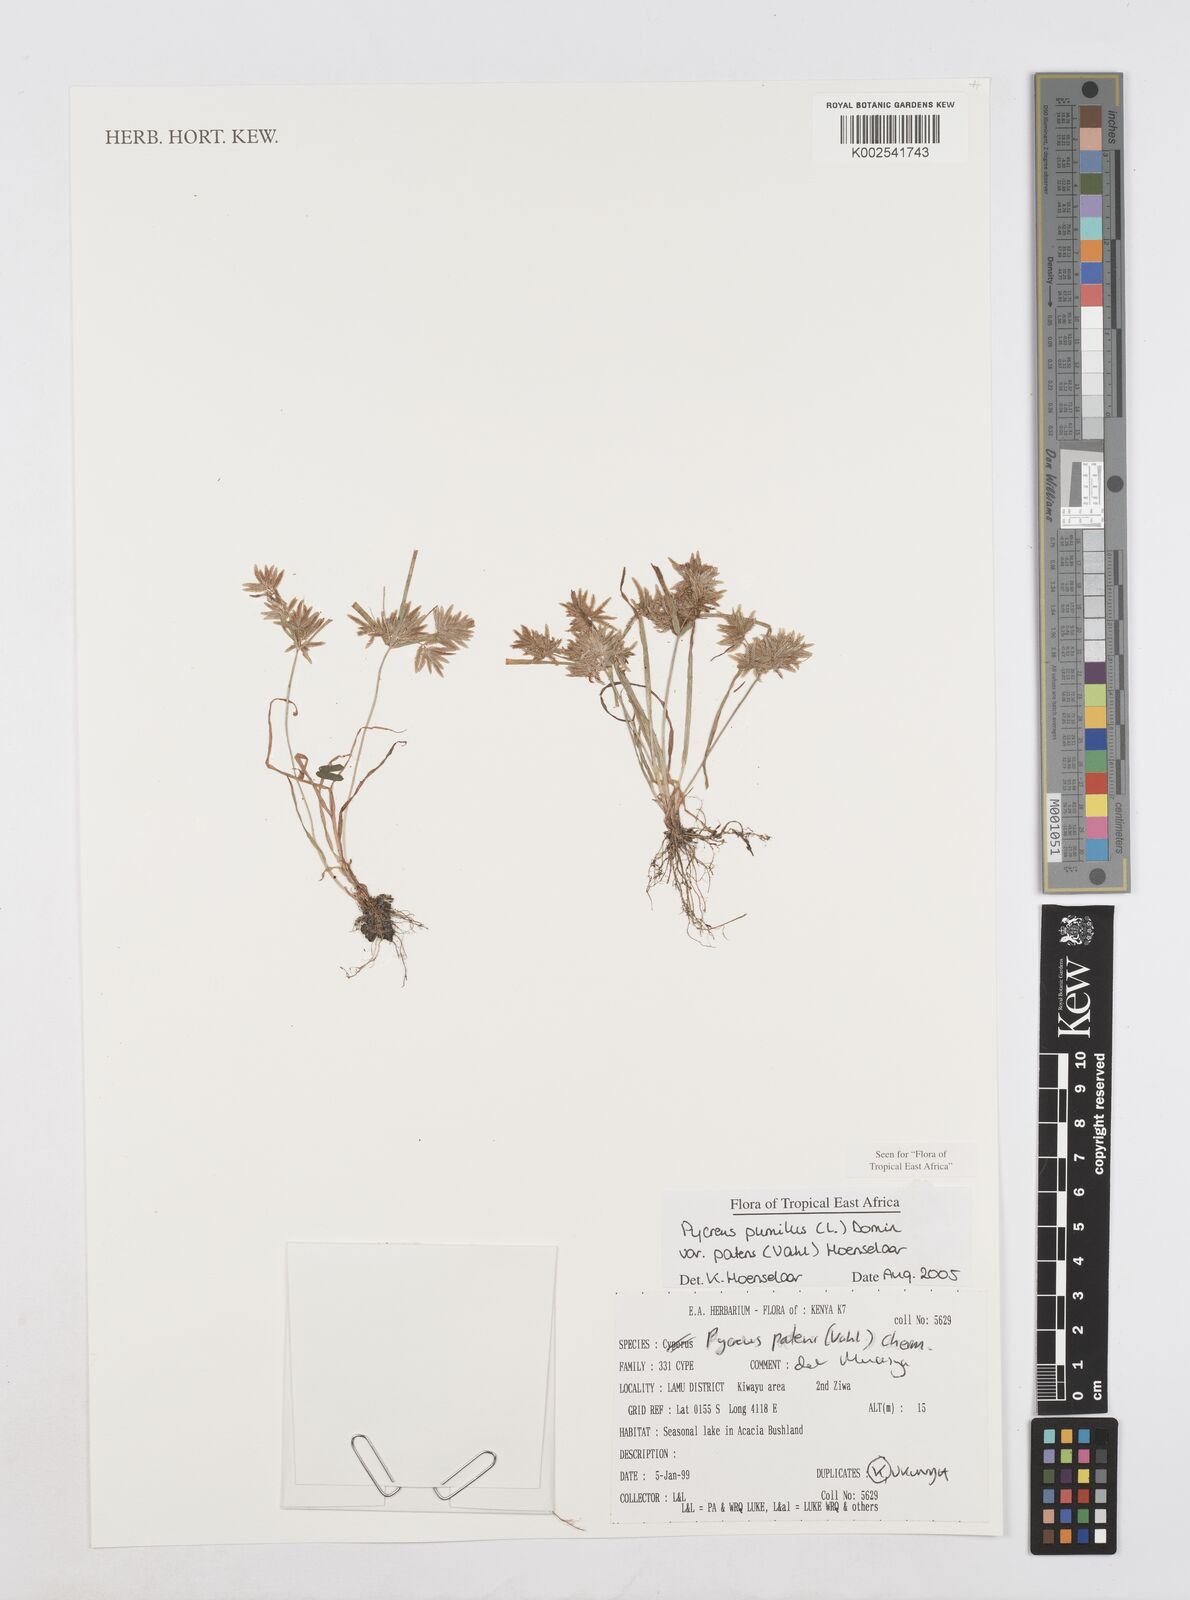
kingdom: Plantae
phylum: Tracheophyta
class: Liliopsida
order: Poales
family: Cyperaceae
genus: Cyperus
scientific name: Cyperus pumilus
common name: Low flatsedge
